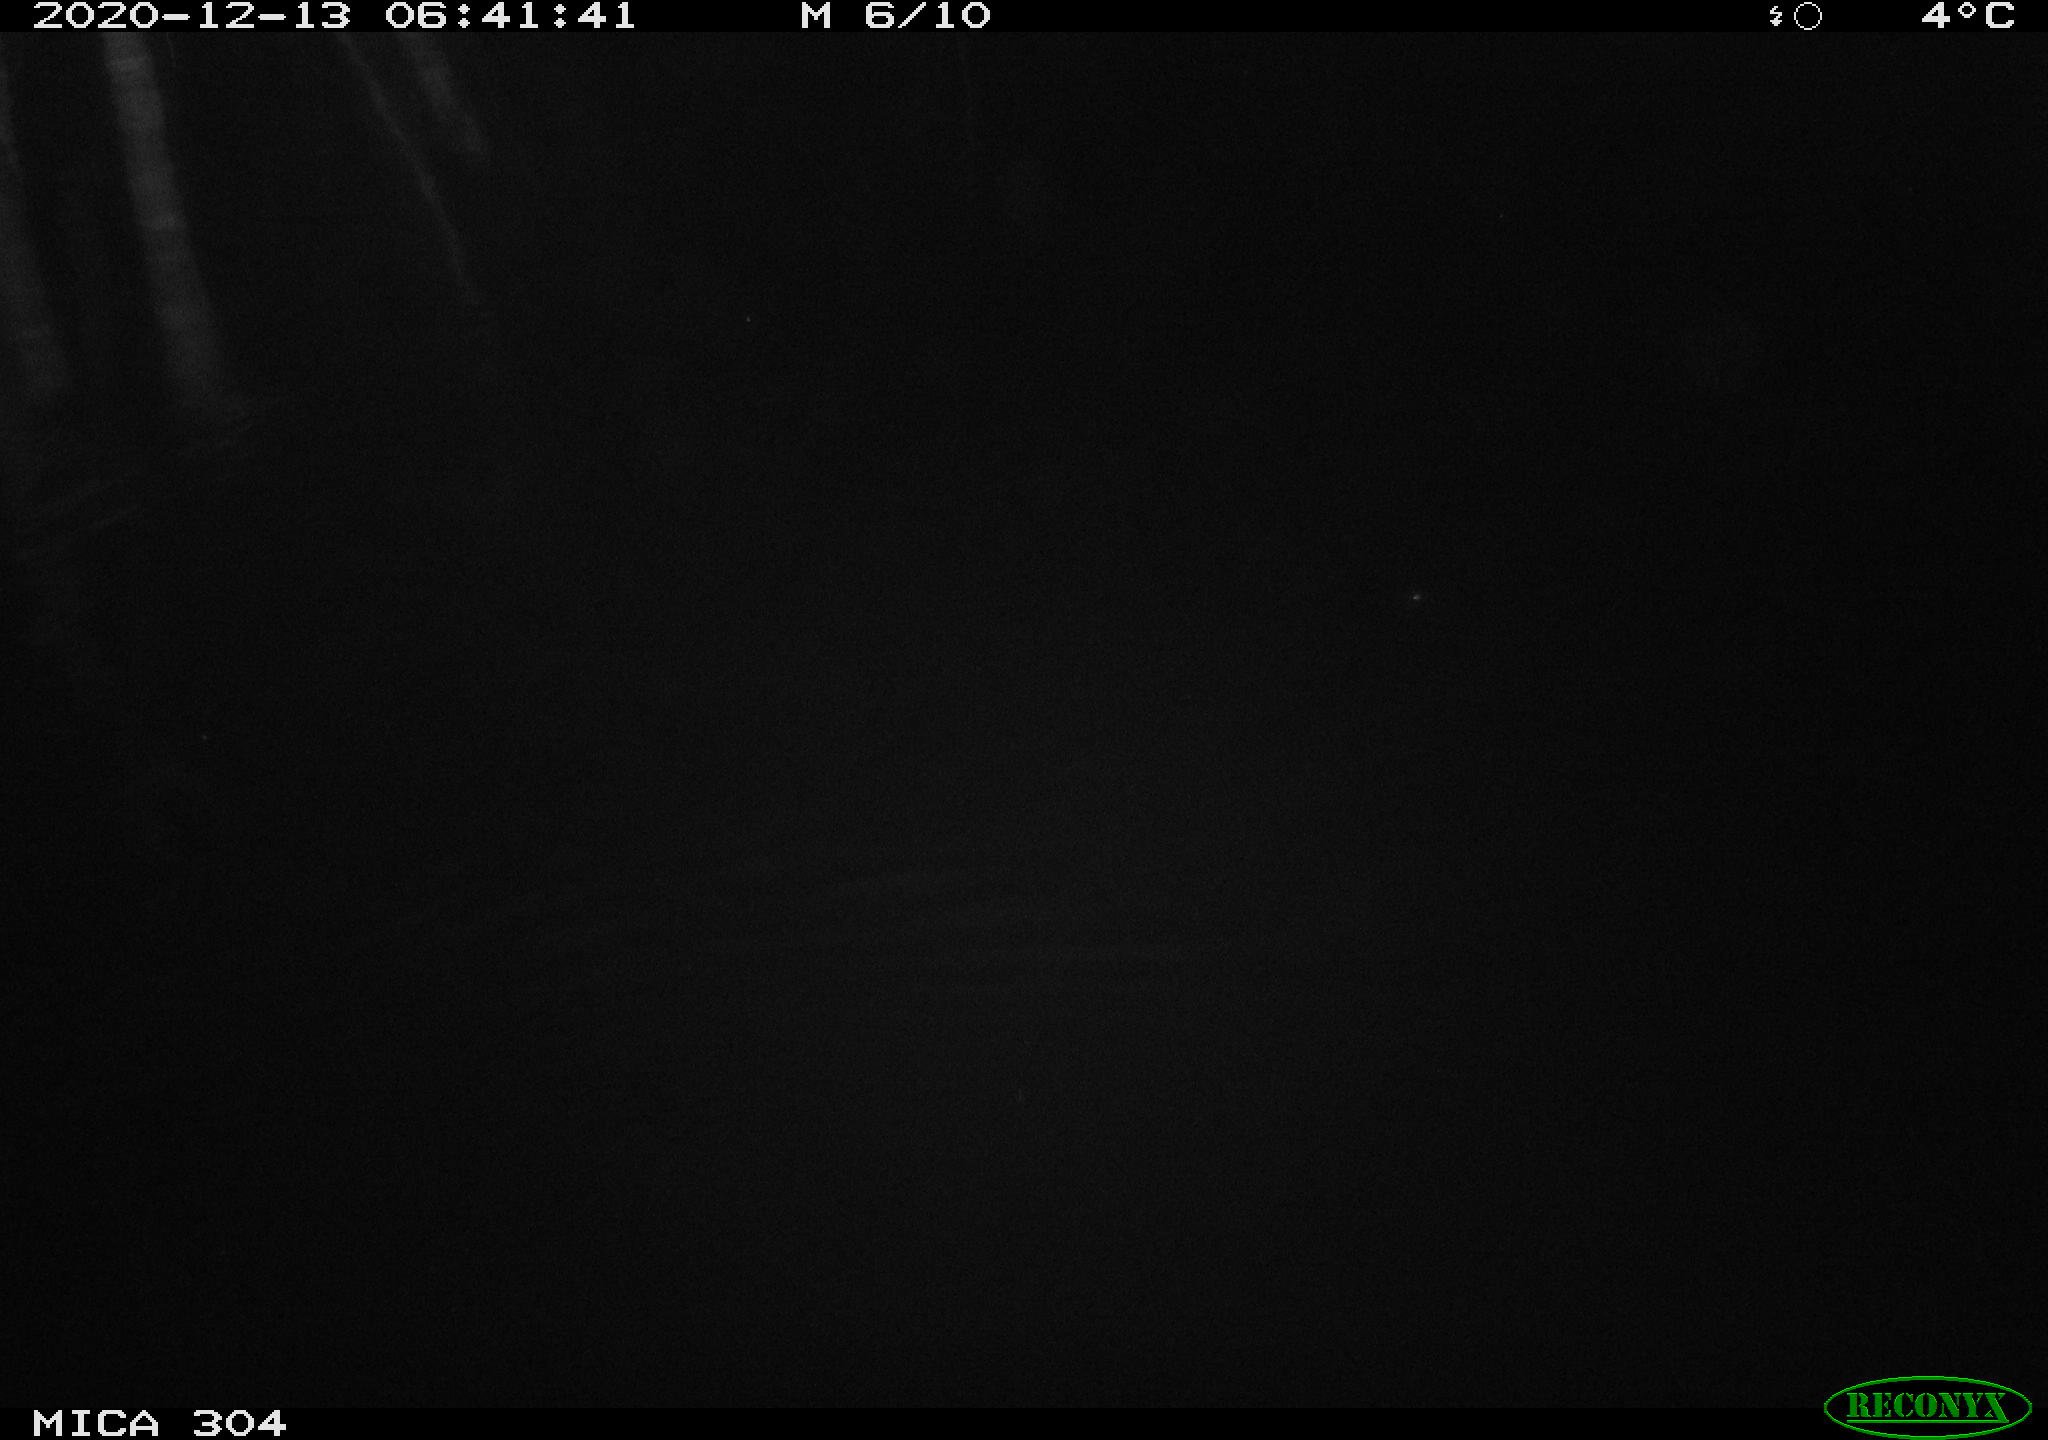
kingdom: Animalia
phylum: Chordata
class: Mammalia
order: Rodentia
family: Muridae
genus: Rattus
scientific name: Rattus norvegicus
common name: Brown rat
